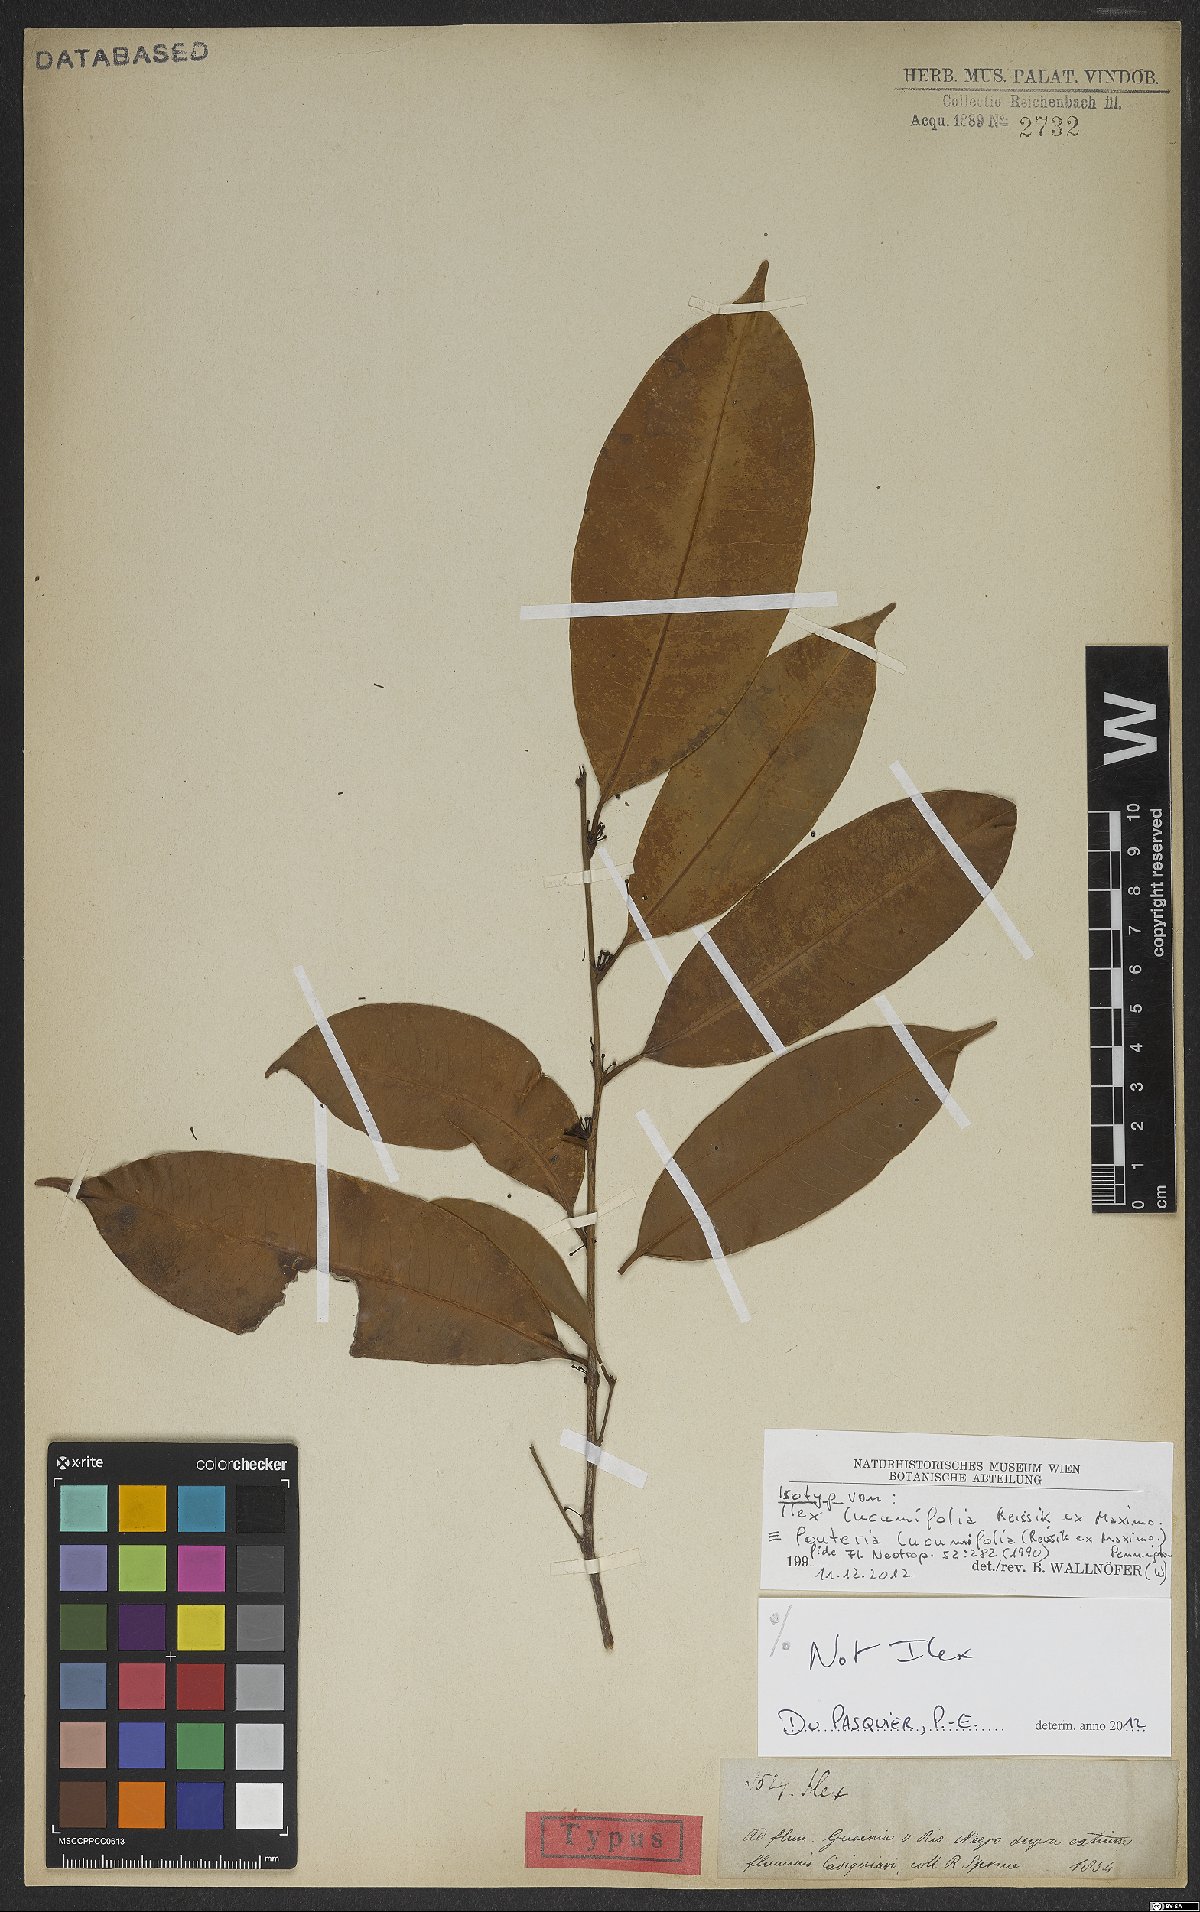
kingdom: Plantae
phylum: Tracheophyta
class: Magnoliopsida
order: Ericales
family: Sapotaceae
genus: Pouteria
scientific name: Pouteria lucumifolia
